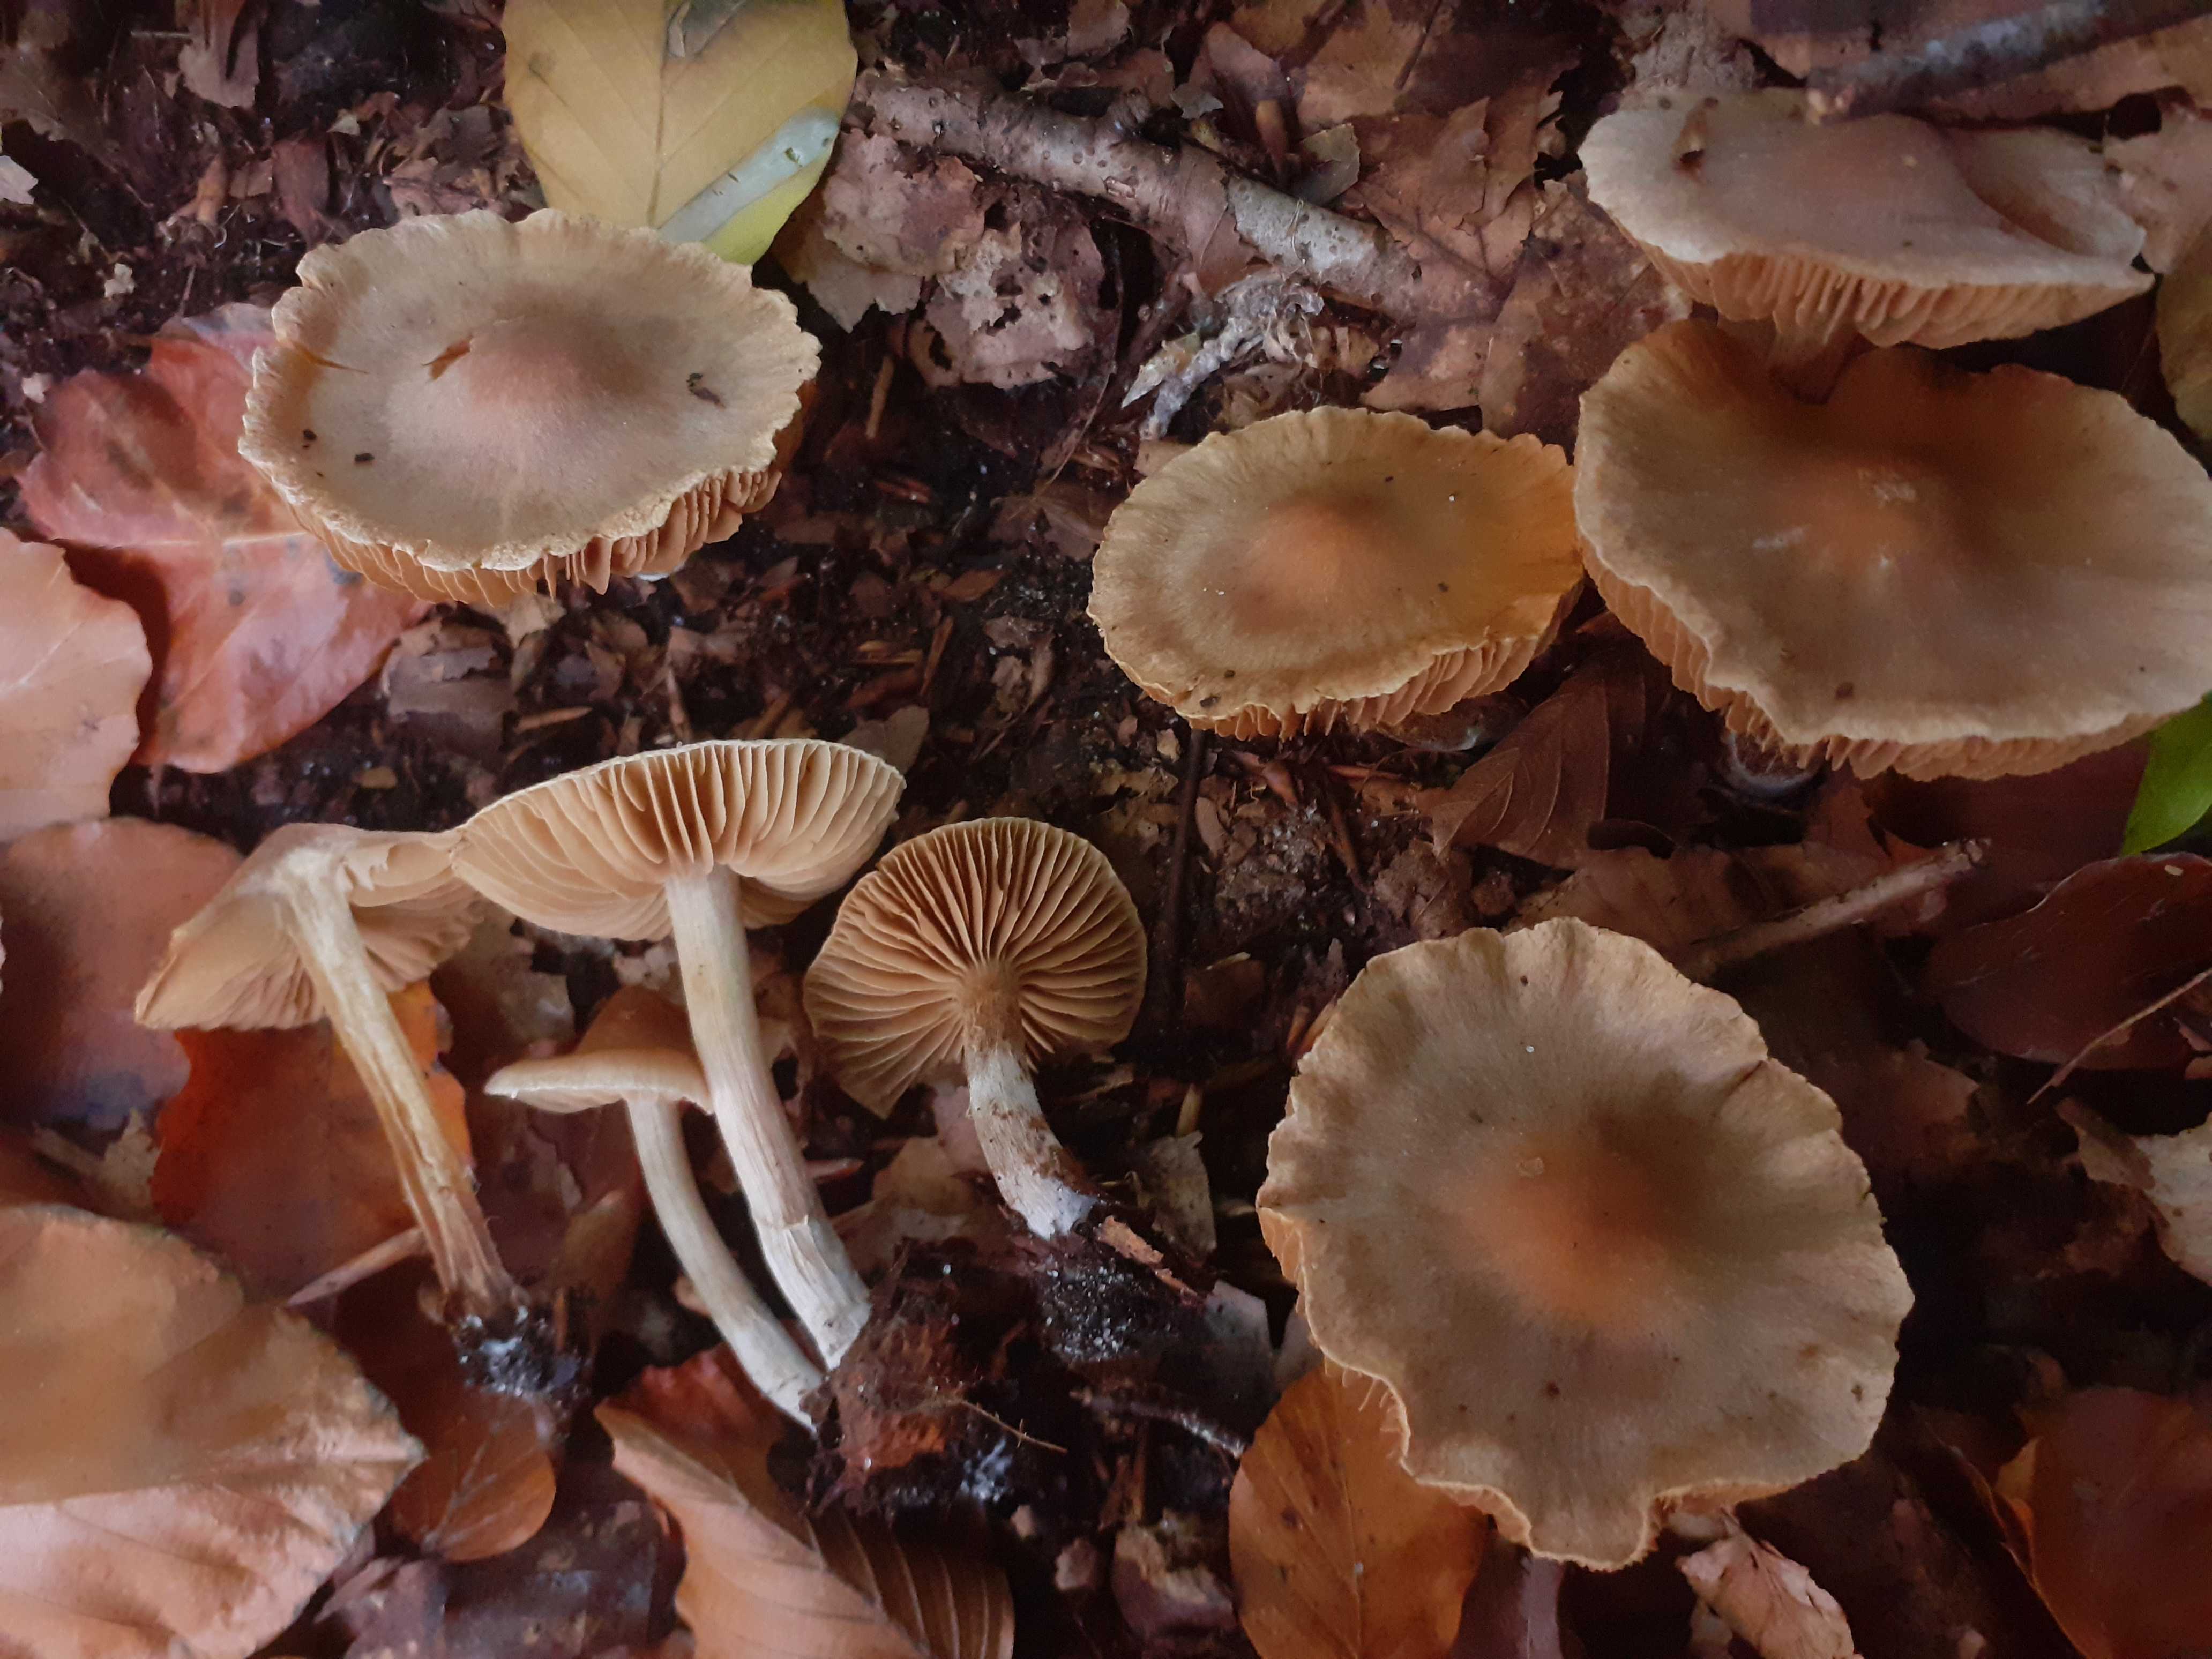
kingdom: Fungi
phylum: Basidiomycota
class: Agaricomycetes
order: Agaricales
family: Cortinariaceae
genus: Cortinarius
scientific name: Cortinarius epipurrus
